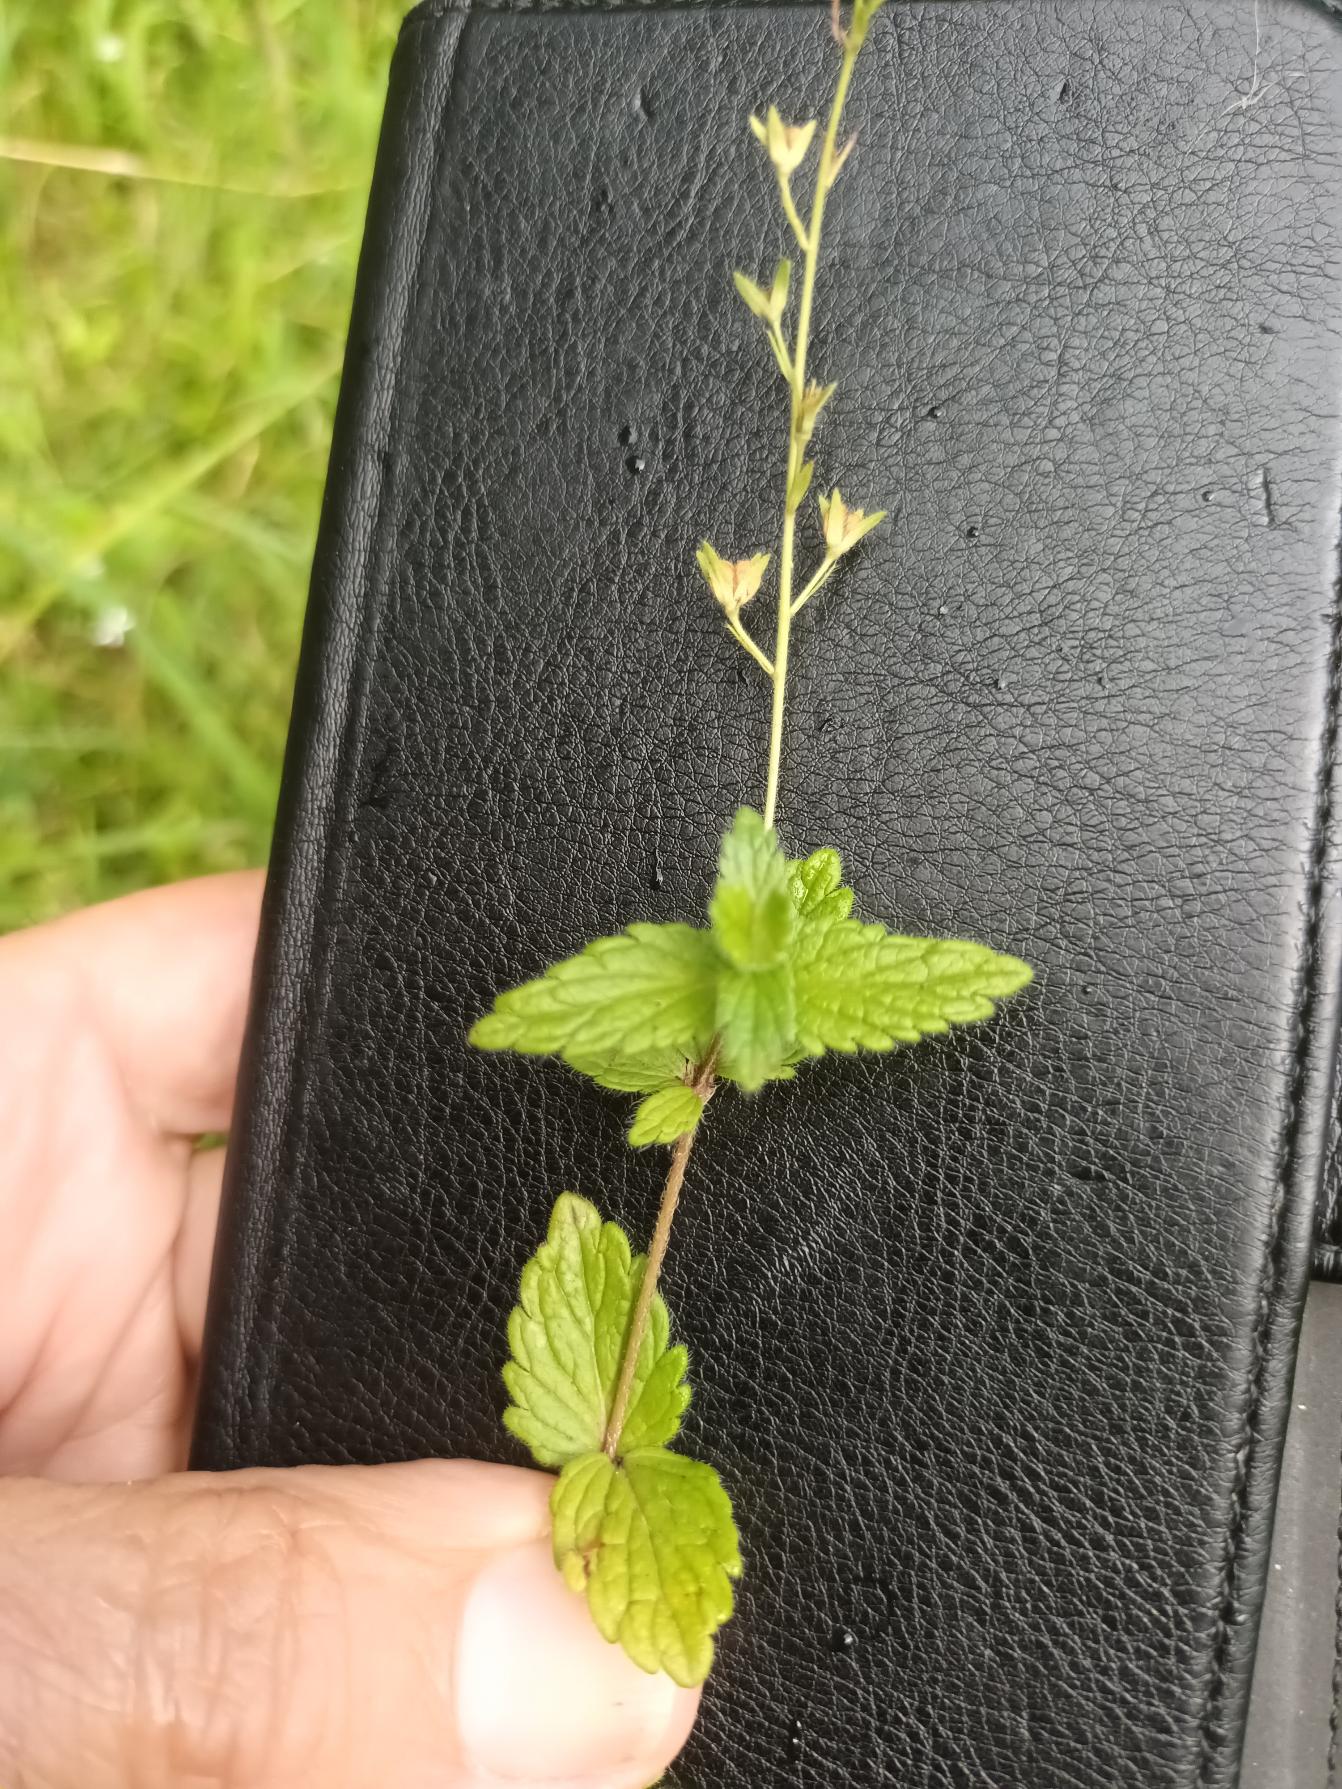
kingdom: Plantae
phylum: Tracheophyta
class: Magnoliopsida
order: Lamiales
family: Plantaginaceae
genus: Veronica
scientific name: Veronica chamaedrys
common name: Tveskægget ærenpris
